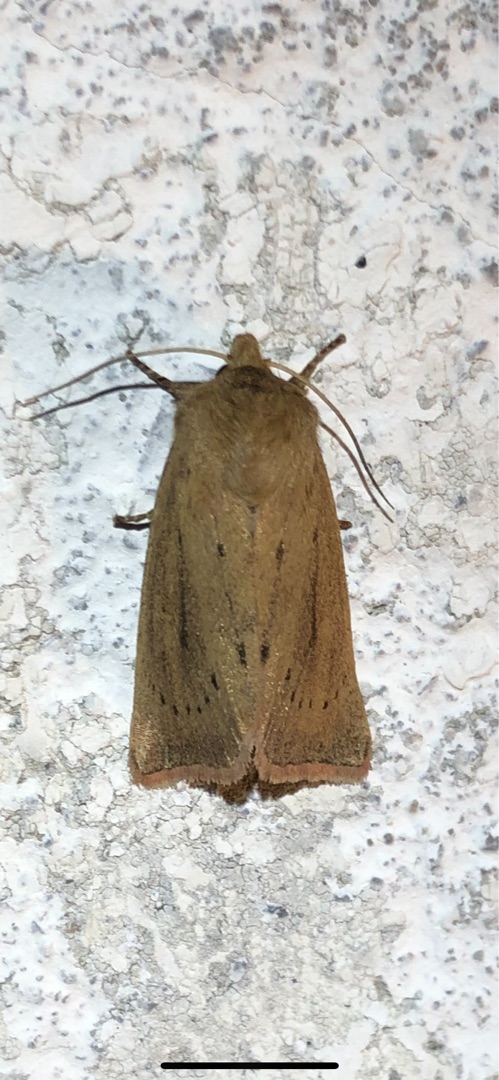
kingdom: Animalia
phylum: Arthropoda
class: Insecta
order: Lepidoptera
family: Noctuidae
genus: Globia
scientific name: Globia algae
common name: Tegningsløs stængelborer
